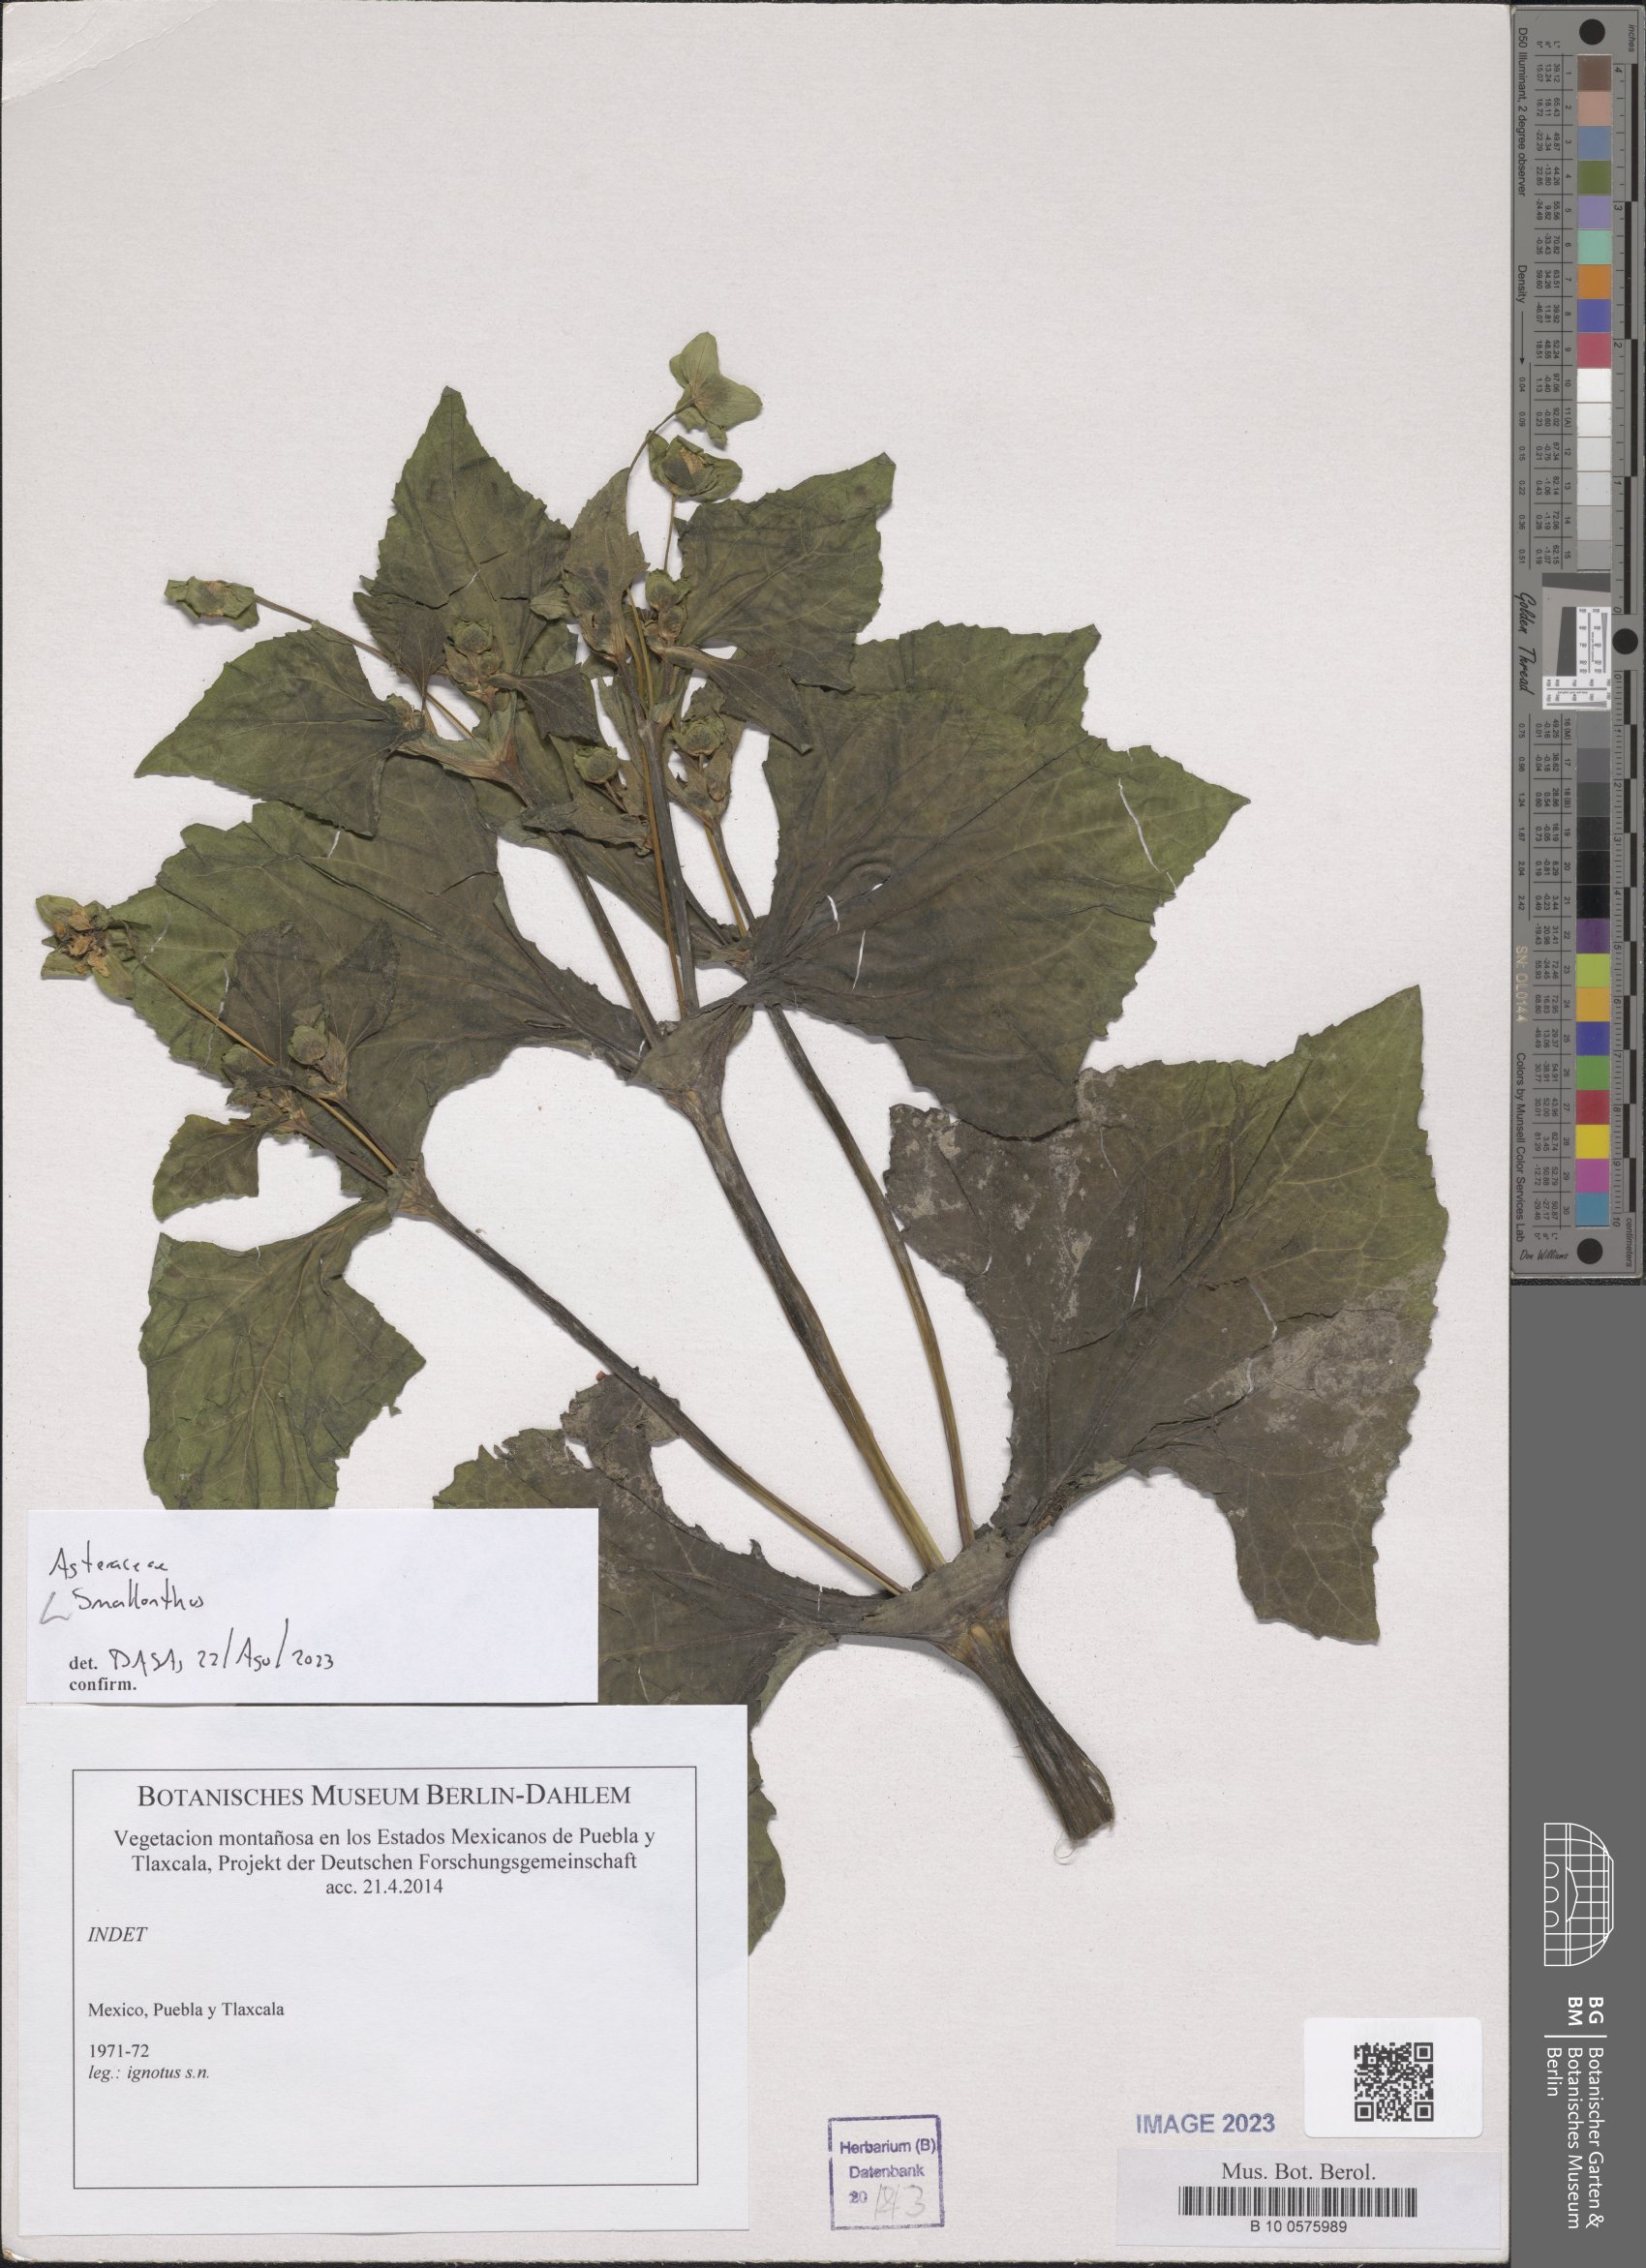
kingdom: Plantae
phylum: Tracheophyta
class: Magnoliopsida
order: Asterales
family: Asteraceae
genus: Smallanthus
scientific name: Smallanthus
